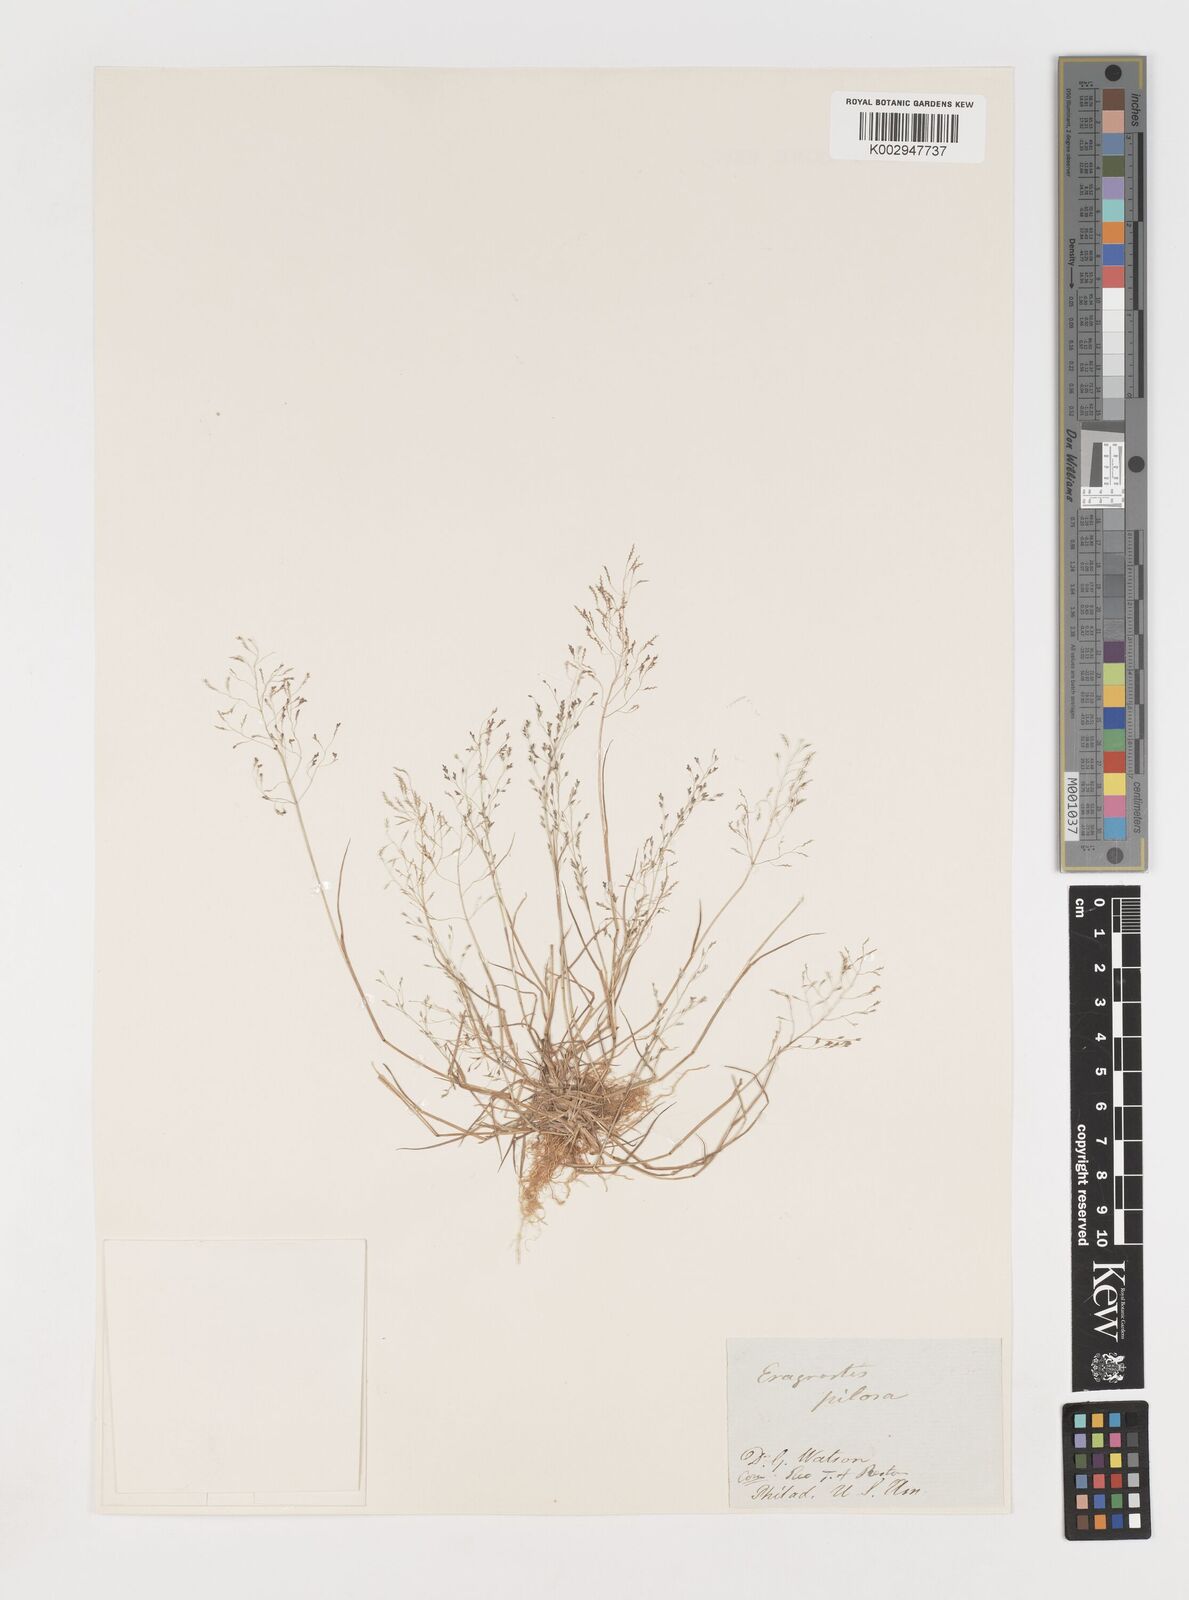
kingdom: Plantae
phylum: Tracheophyta
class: Liliopsida
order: Poales
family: Poaceae
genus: Eragrostis
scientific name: Eragrostis pilosa
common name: Indian lovegrass
